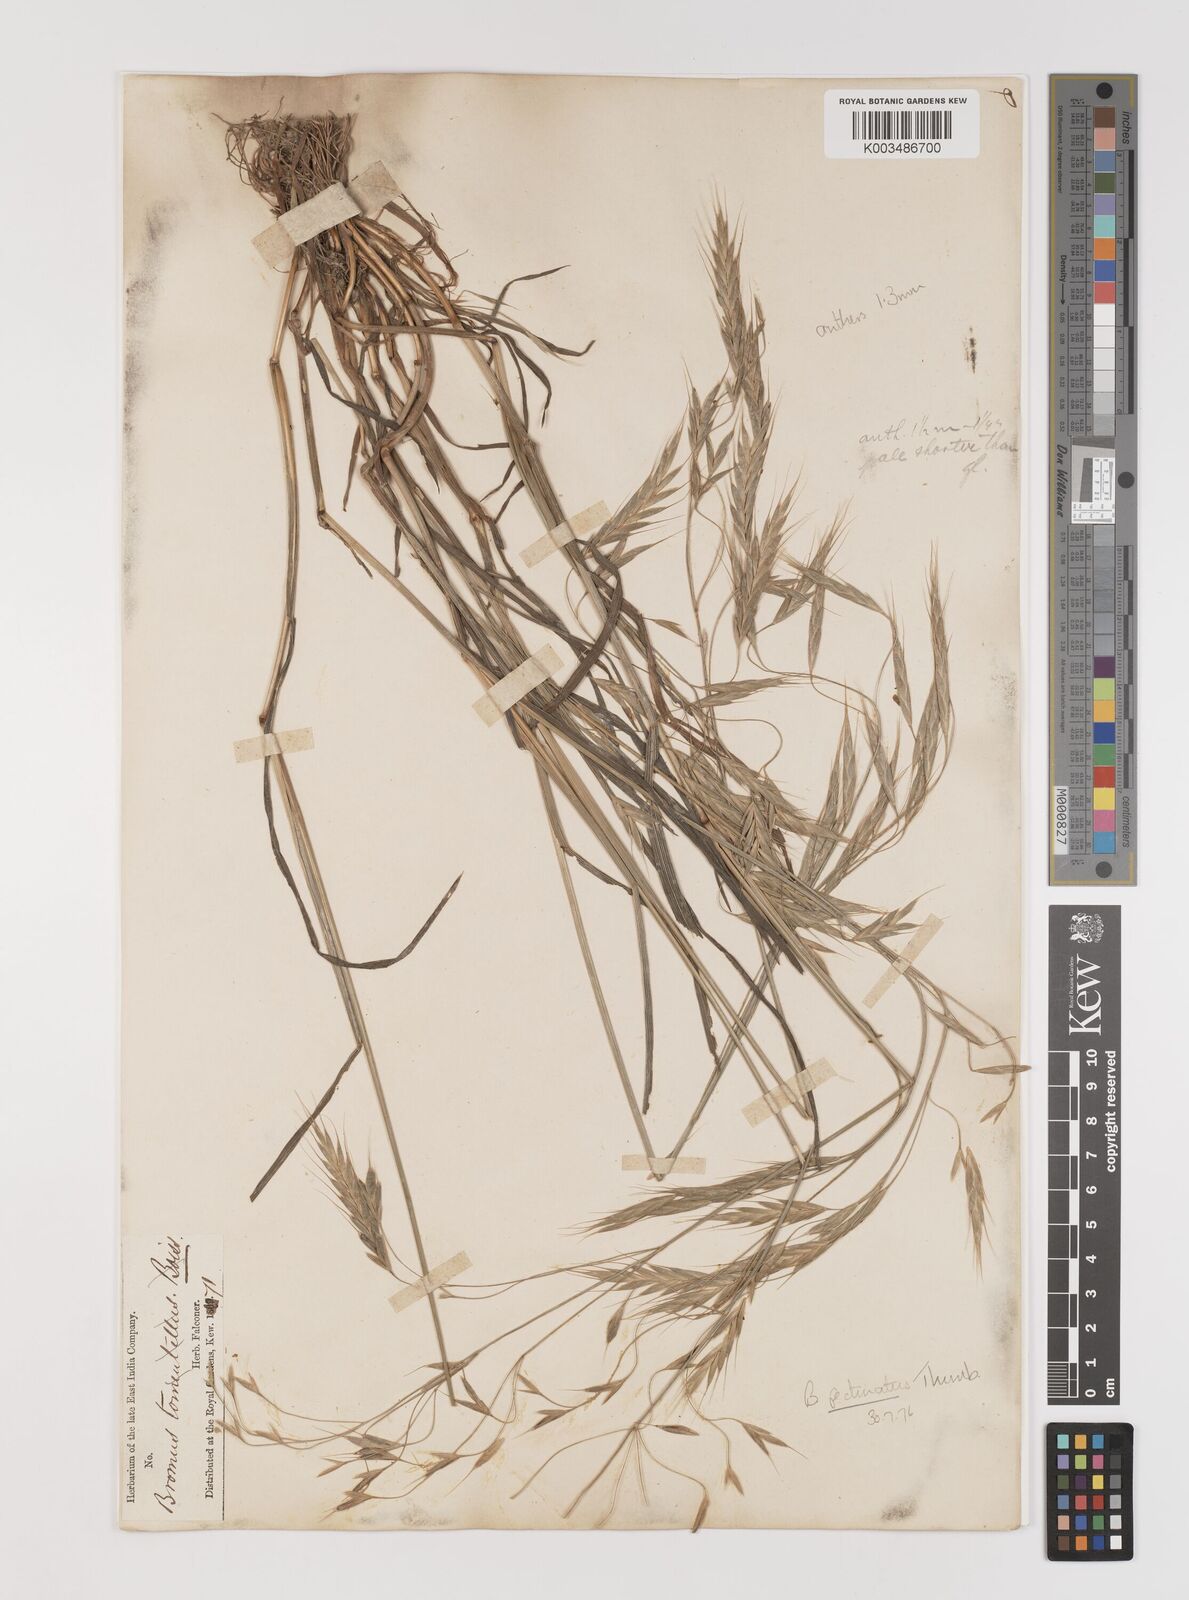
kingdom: Plantae
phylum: Tracheophyta
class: Liliopsida
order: Poales
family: Poaceae
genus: Bromus
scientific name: Bromus pectinatus
